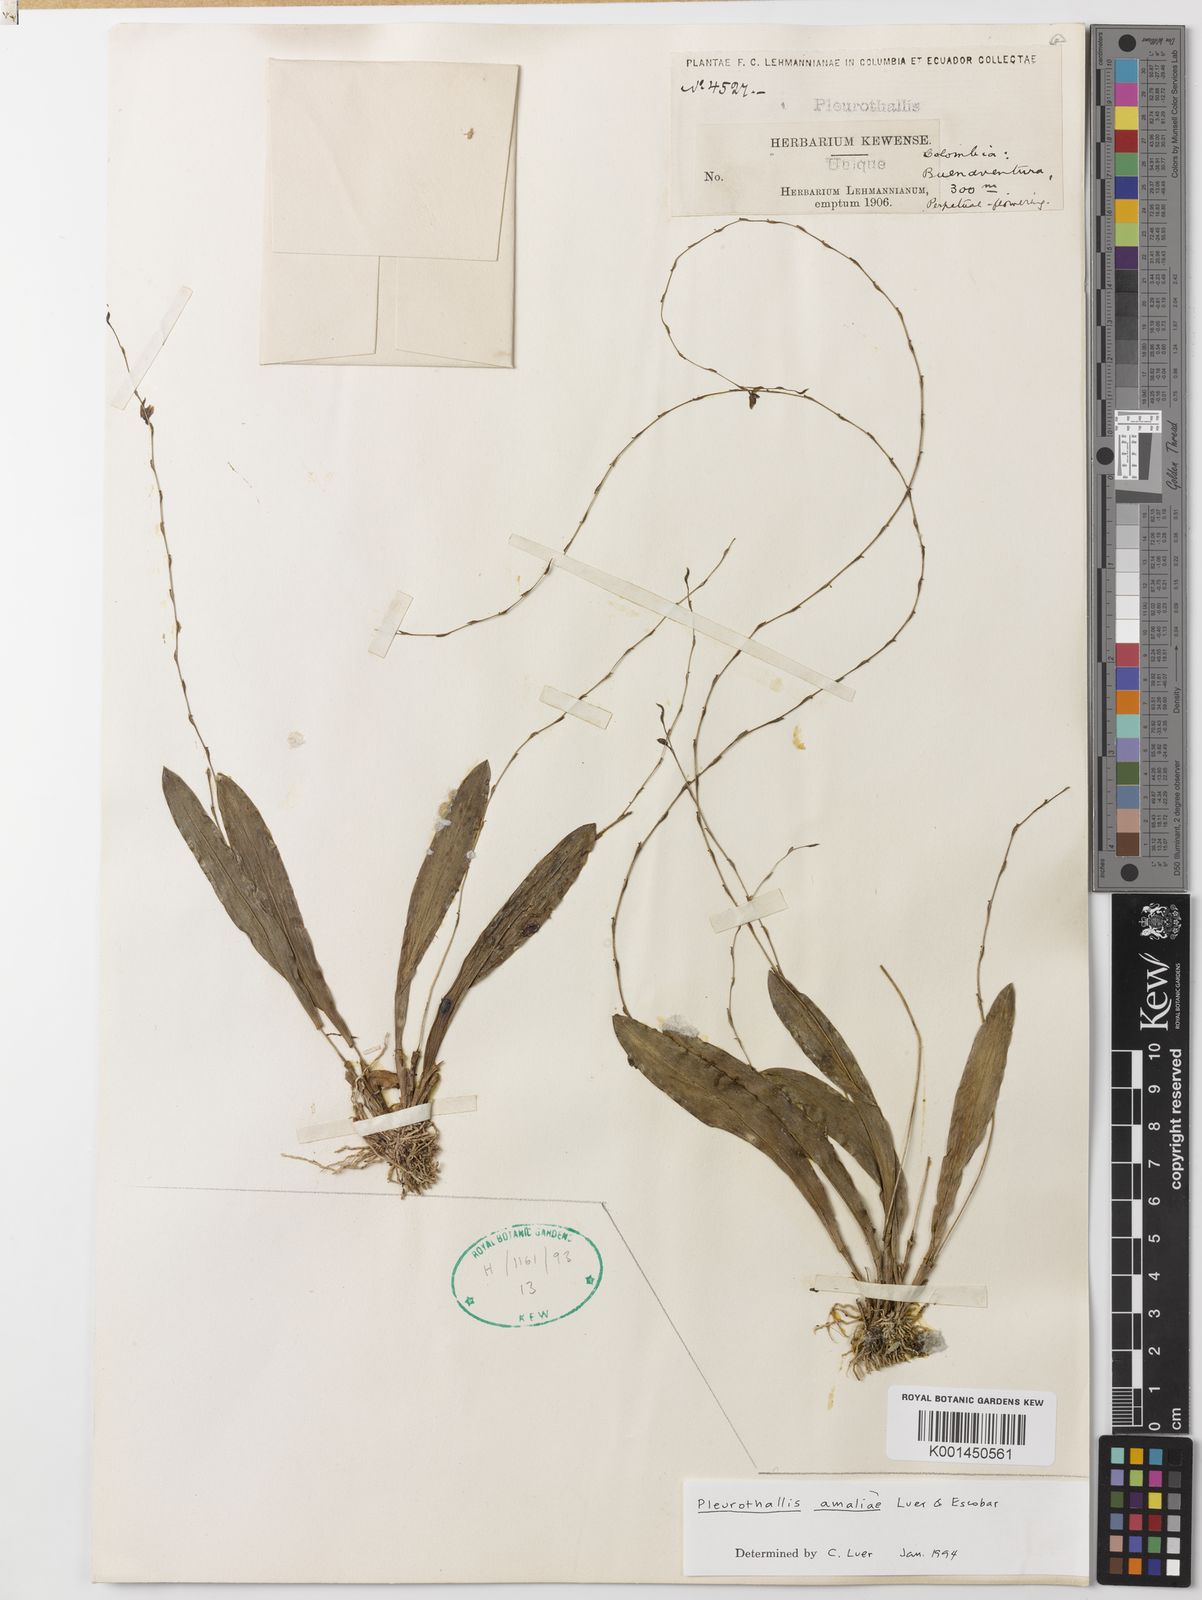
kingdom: Plantae
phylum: Tracheophyta
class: Liliopsida
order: Asparagales
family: Orchidaceae
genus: Stelis
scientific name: Stelis amaliae
